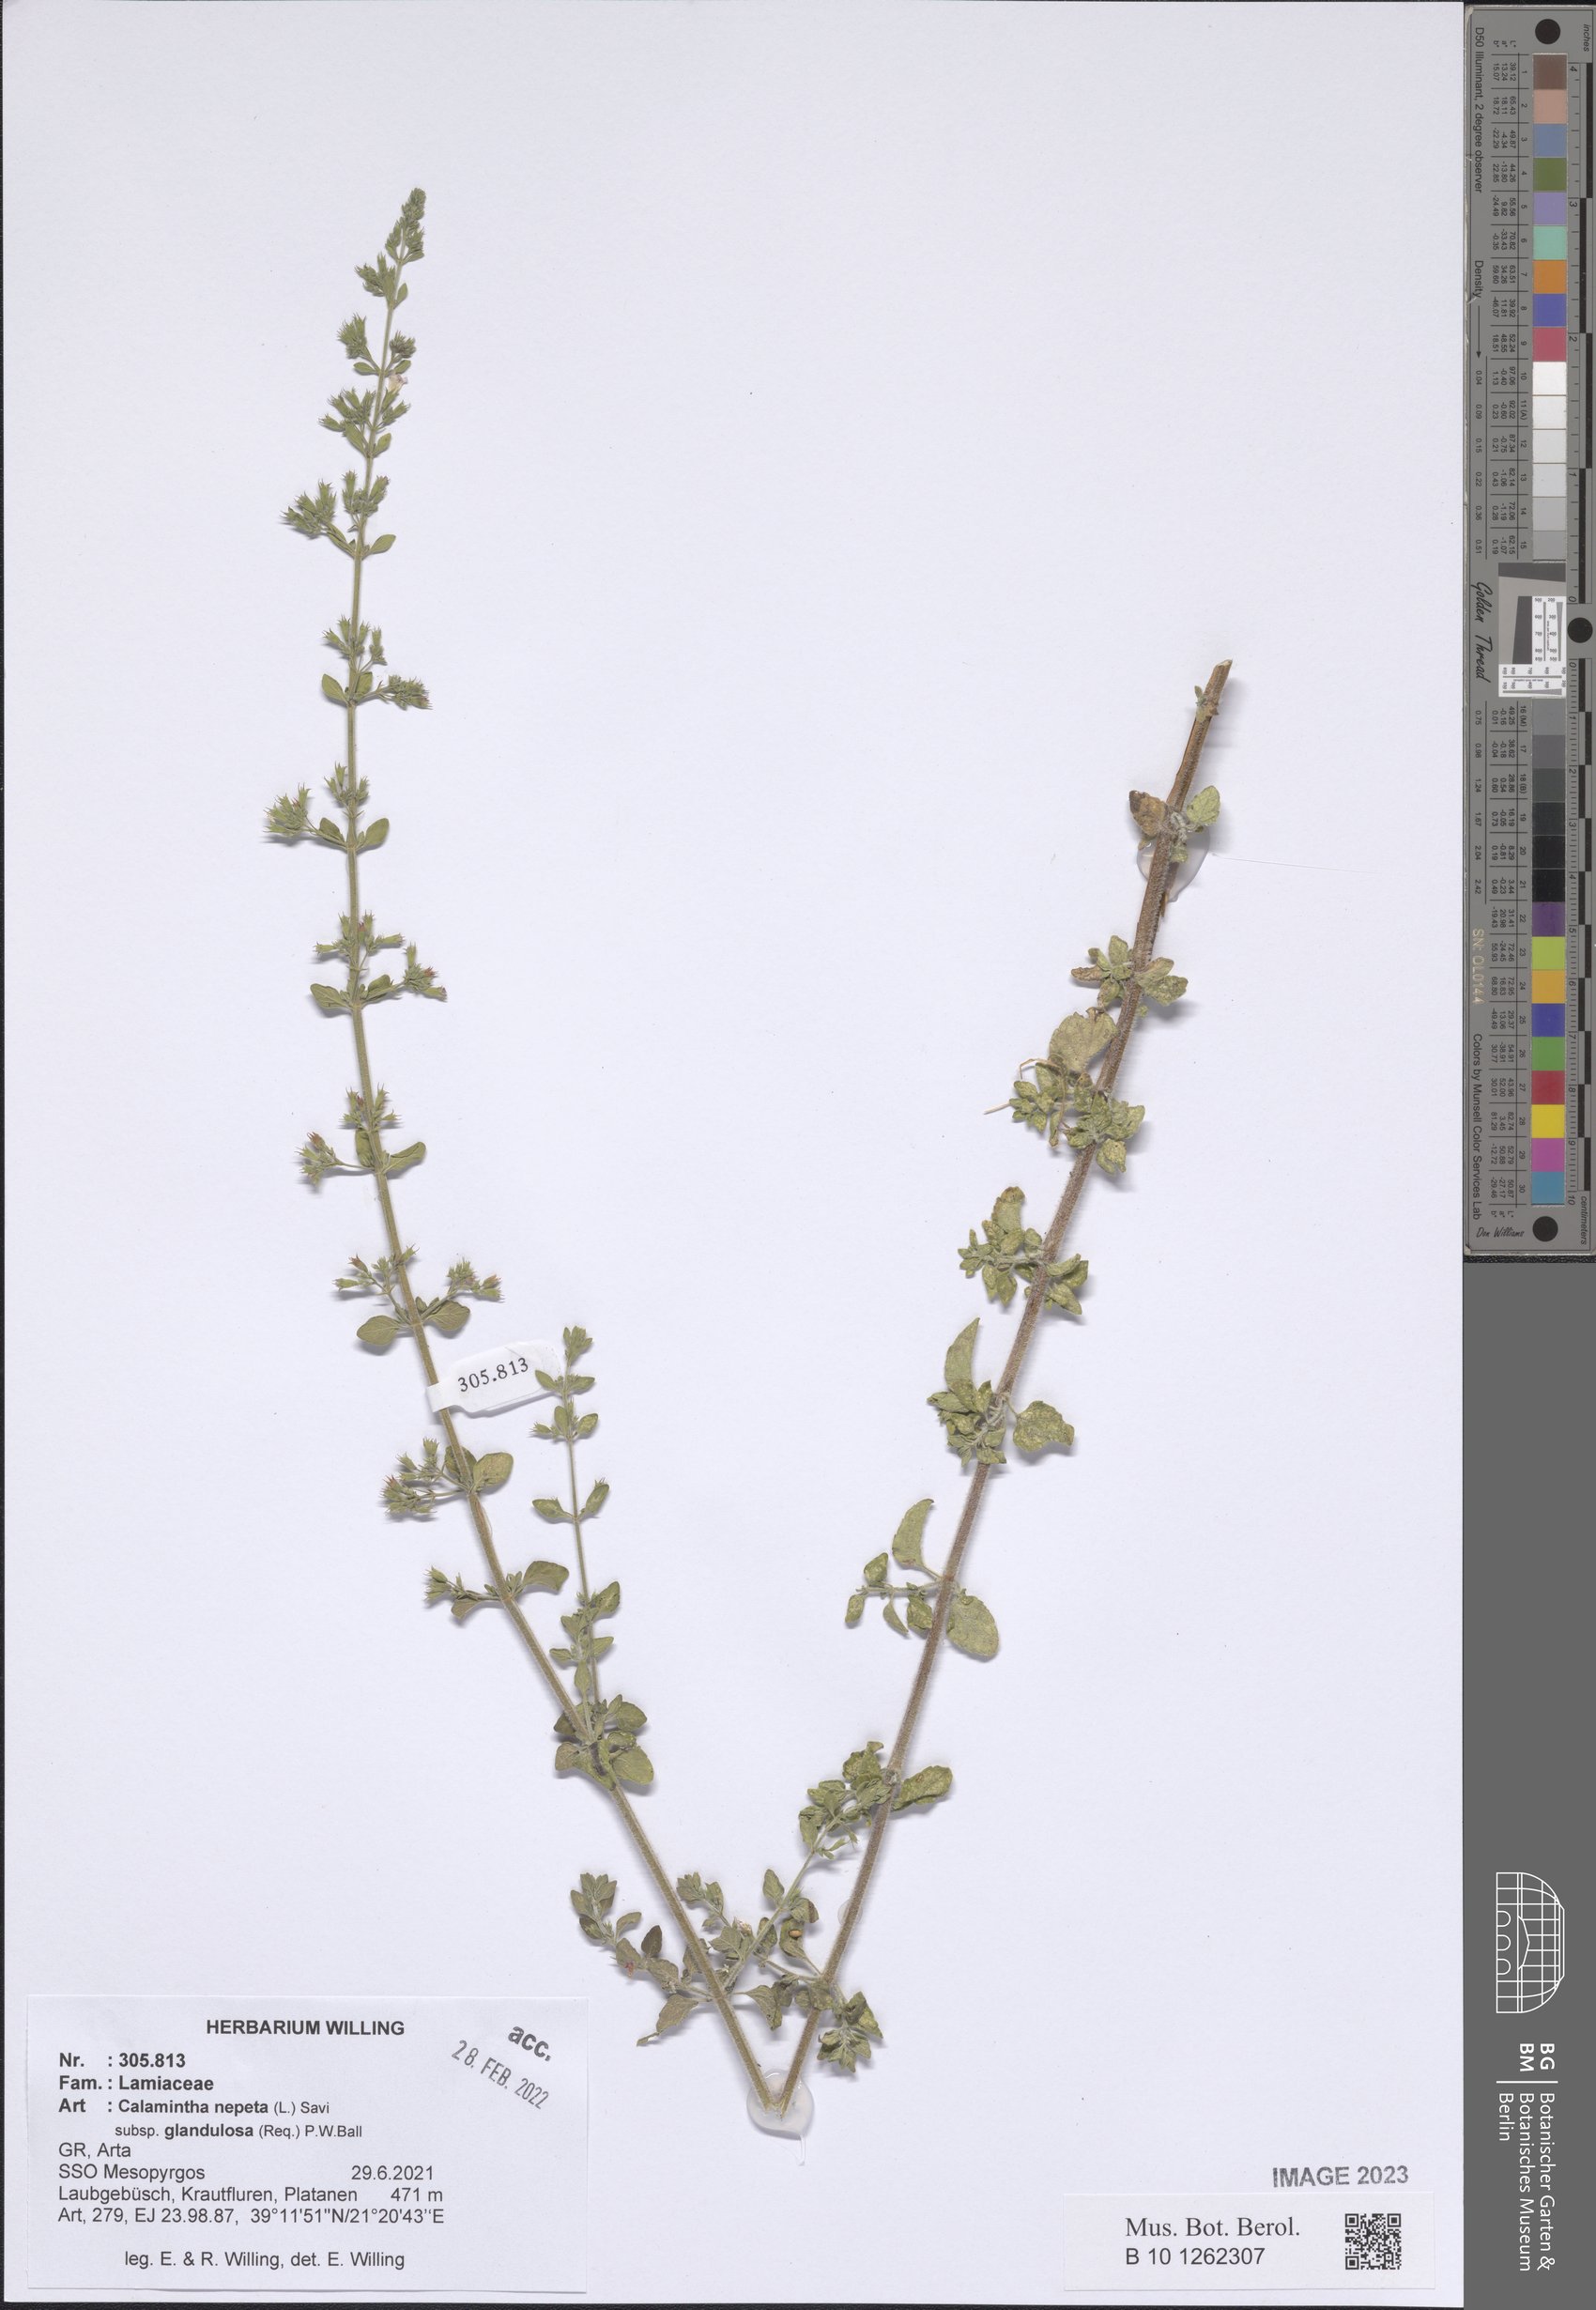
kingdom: Plantae
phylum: Tracheophyta
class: Magnoliopsida
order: Lamiales
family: Lamiaceae
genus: Clinopodium
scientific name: Clinopodium nepeta
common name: Lesser calamint
